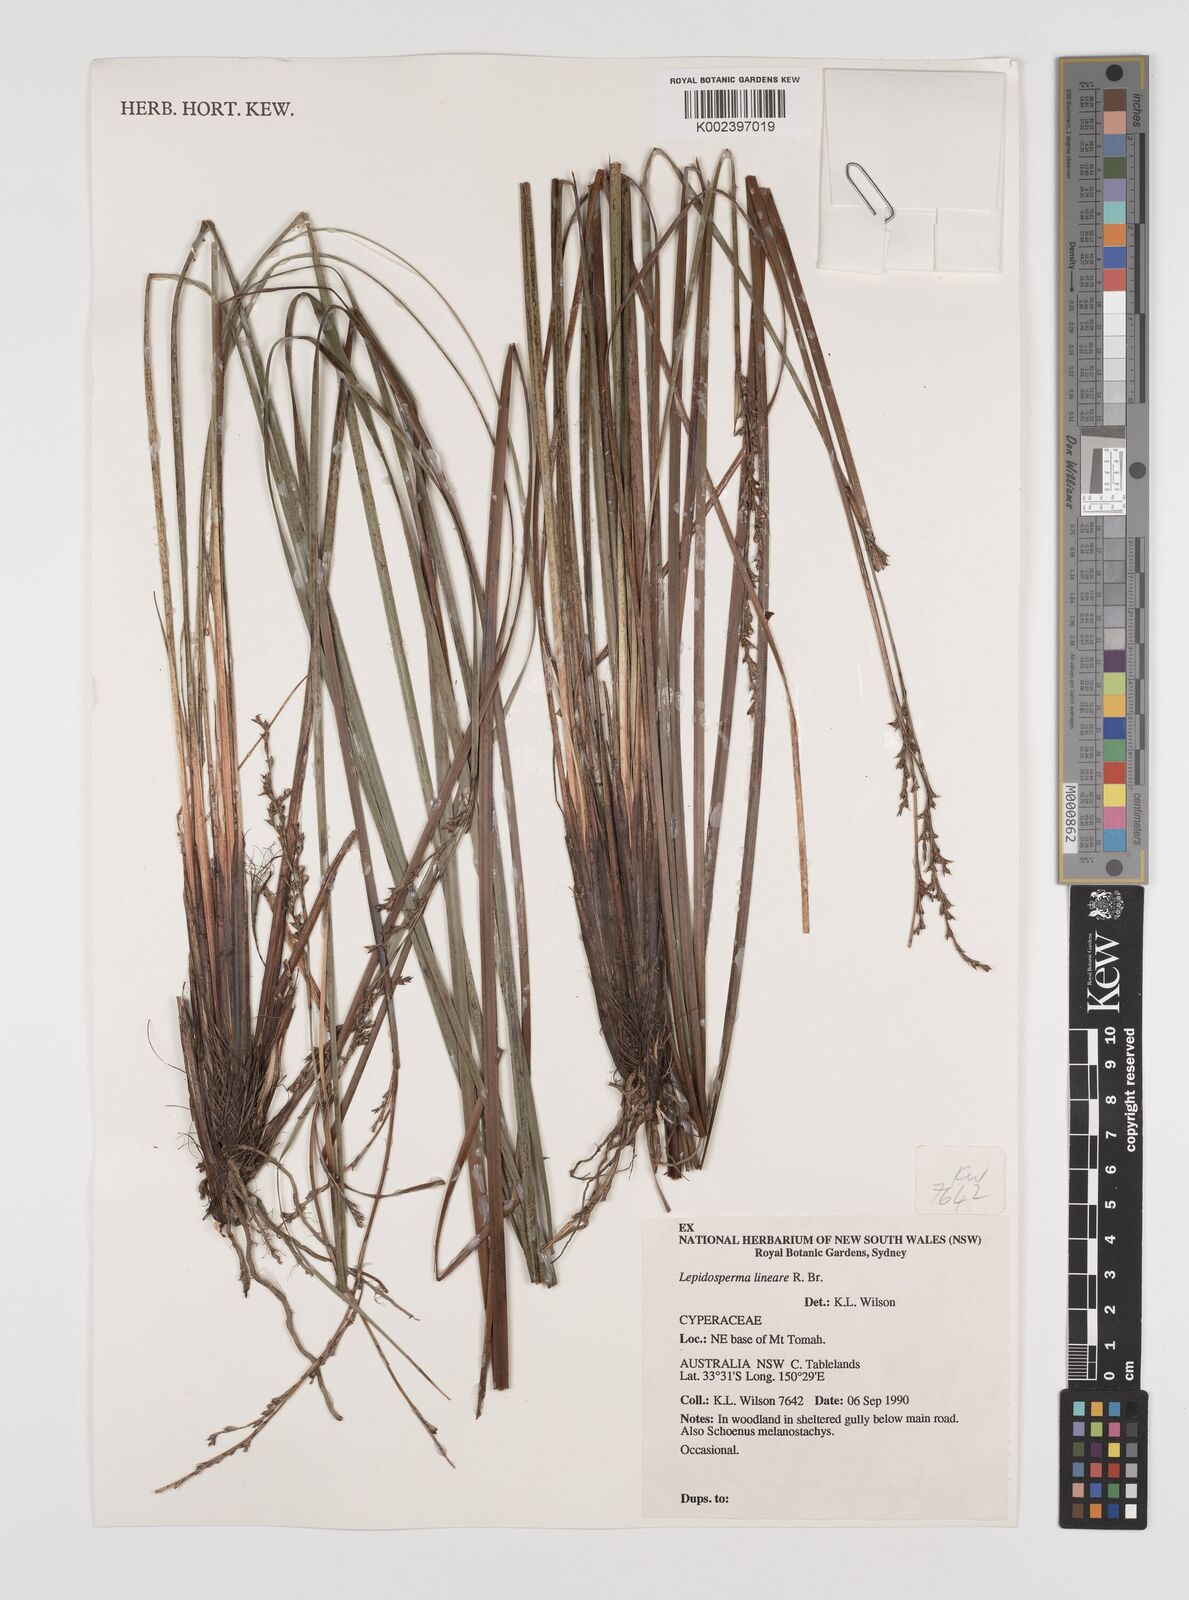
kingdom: Plantae
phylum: Tracheophyta
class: Liliopsida
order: Poales
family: Cyperaceae
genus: Lepidosperma
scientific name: Lepidosperma lineare
